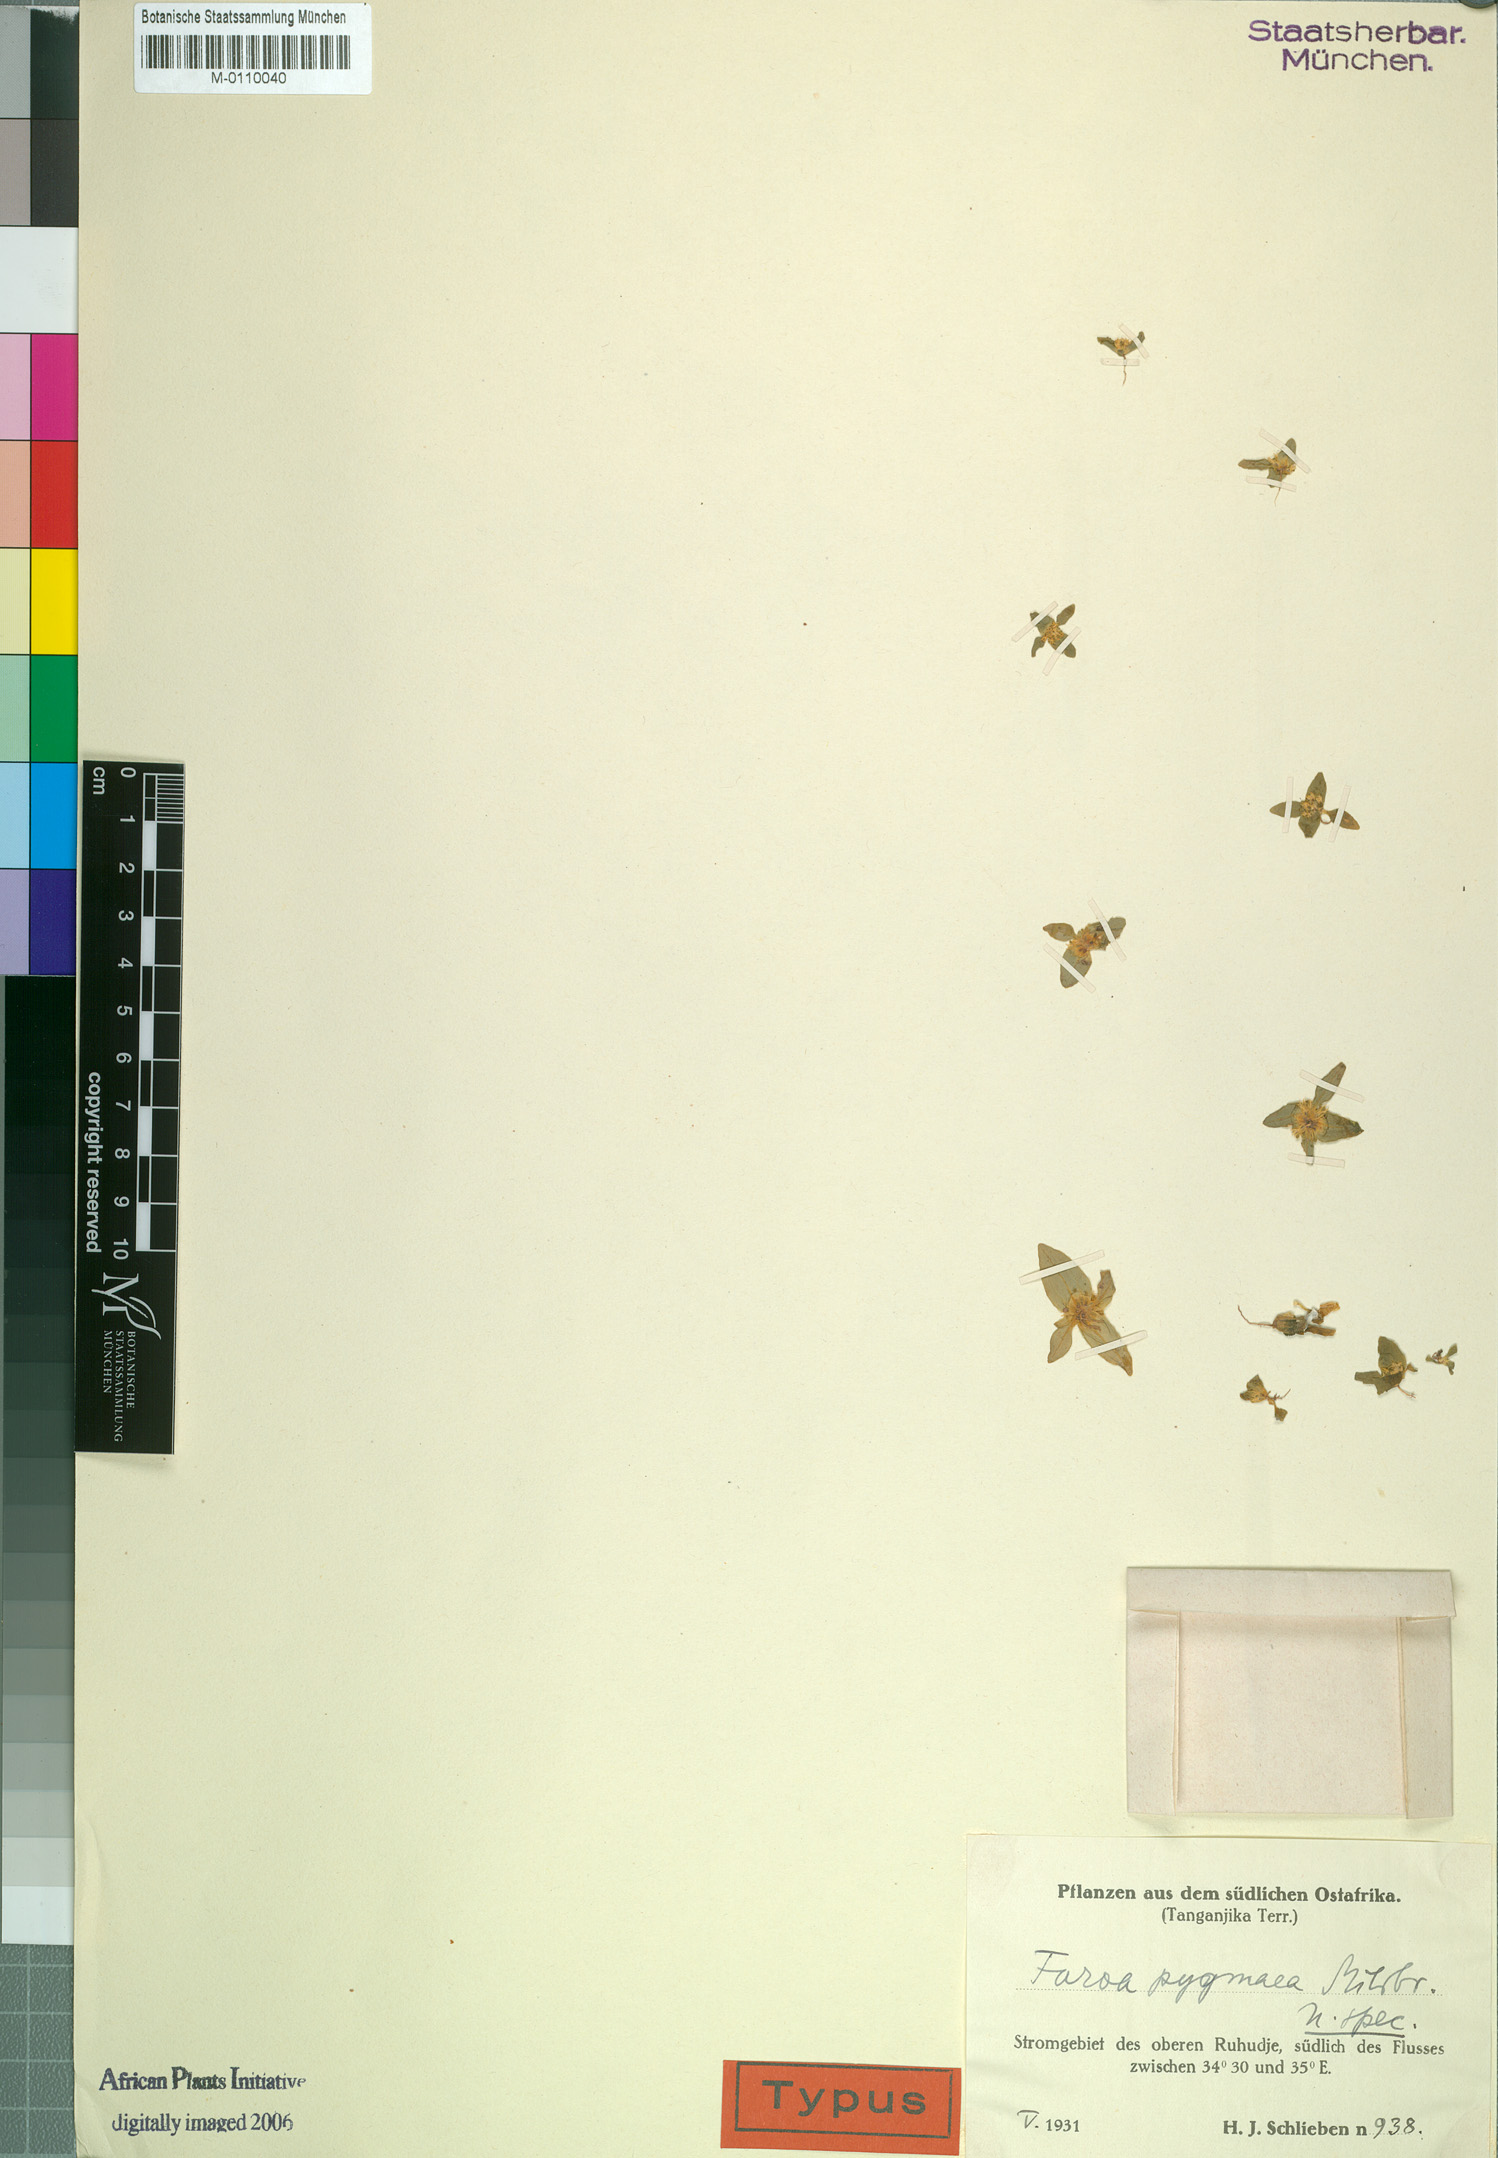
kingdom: Plantae
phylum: Tracheophyta
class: Magnoliopsida
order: Gentianales
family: Gentianaceae
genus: Faroa
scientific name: Faroa acaulis
